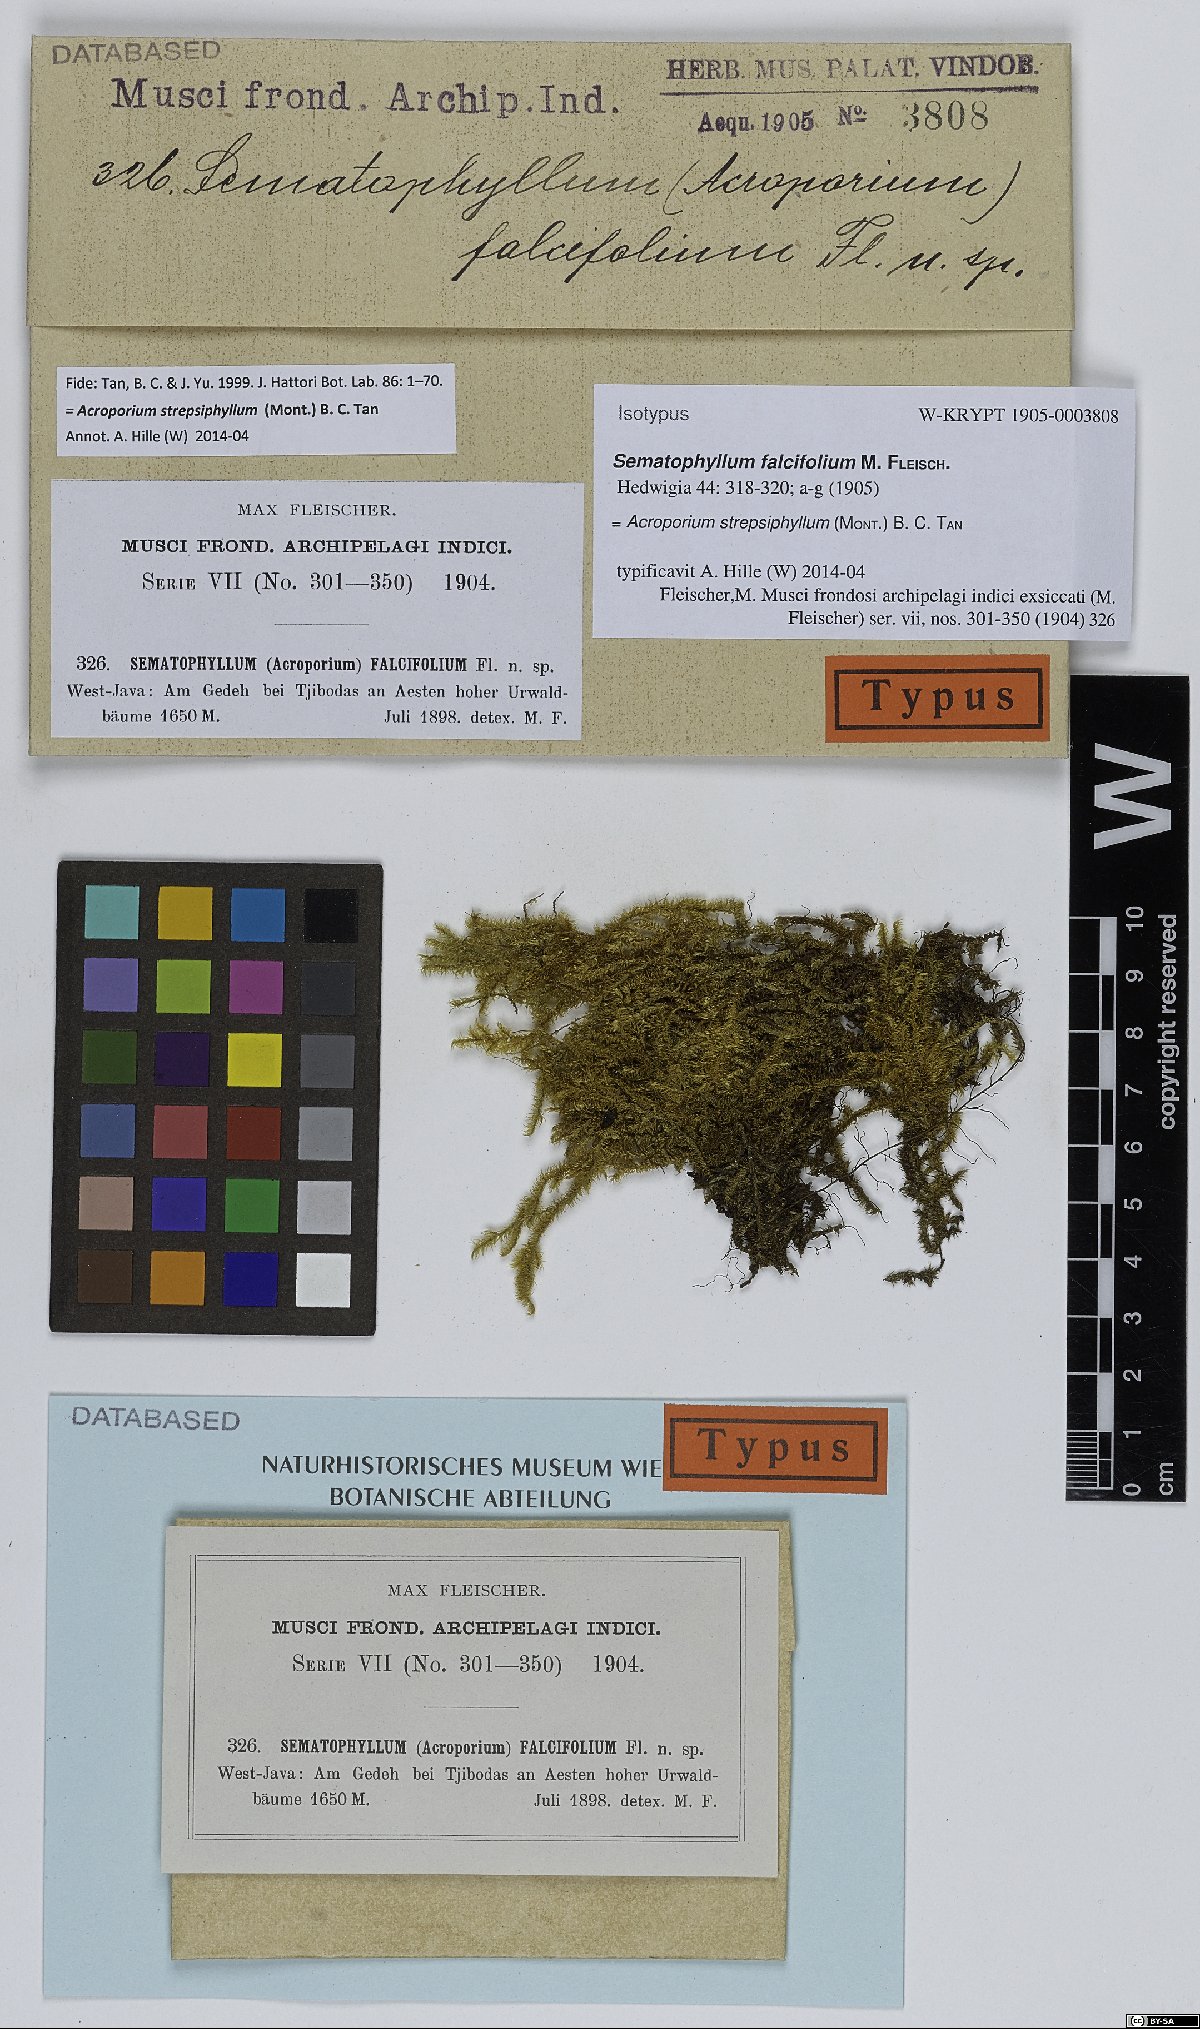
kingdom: Plantae
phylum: Bryophyta
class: Bryopsida
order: Hypnales
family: Sematophyllaceae
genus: Acroporium
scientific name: Acroporium strepsiphyllum
